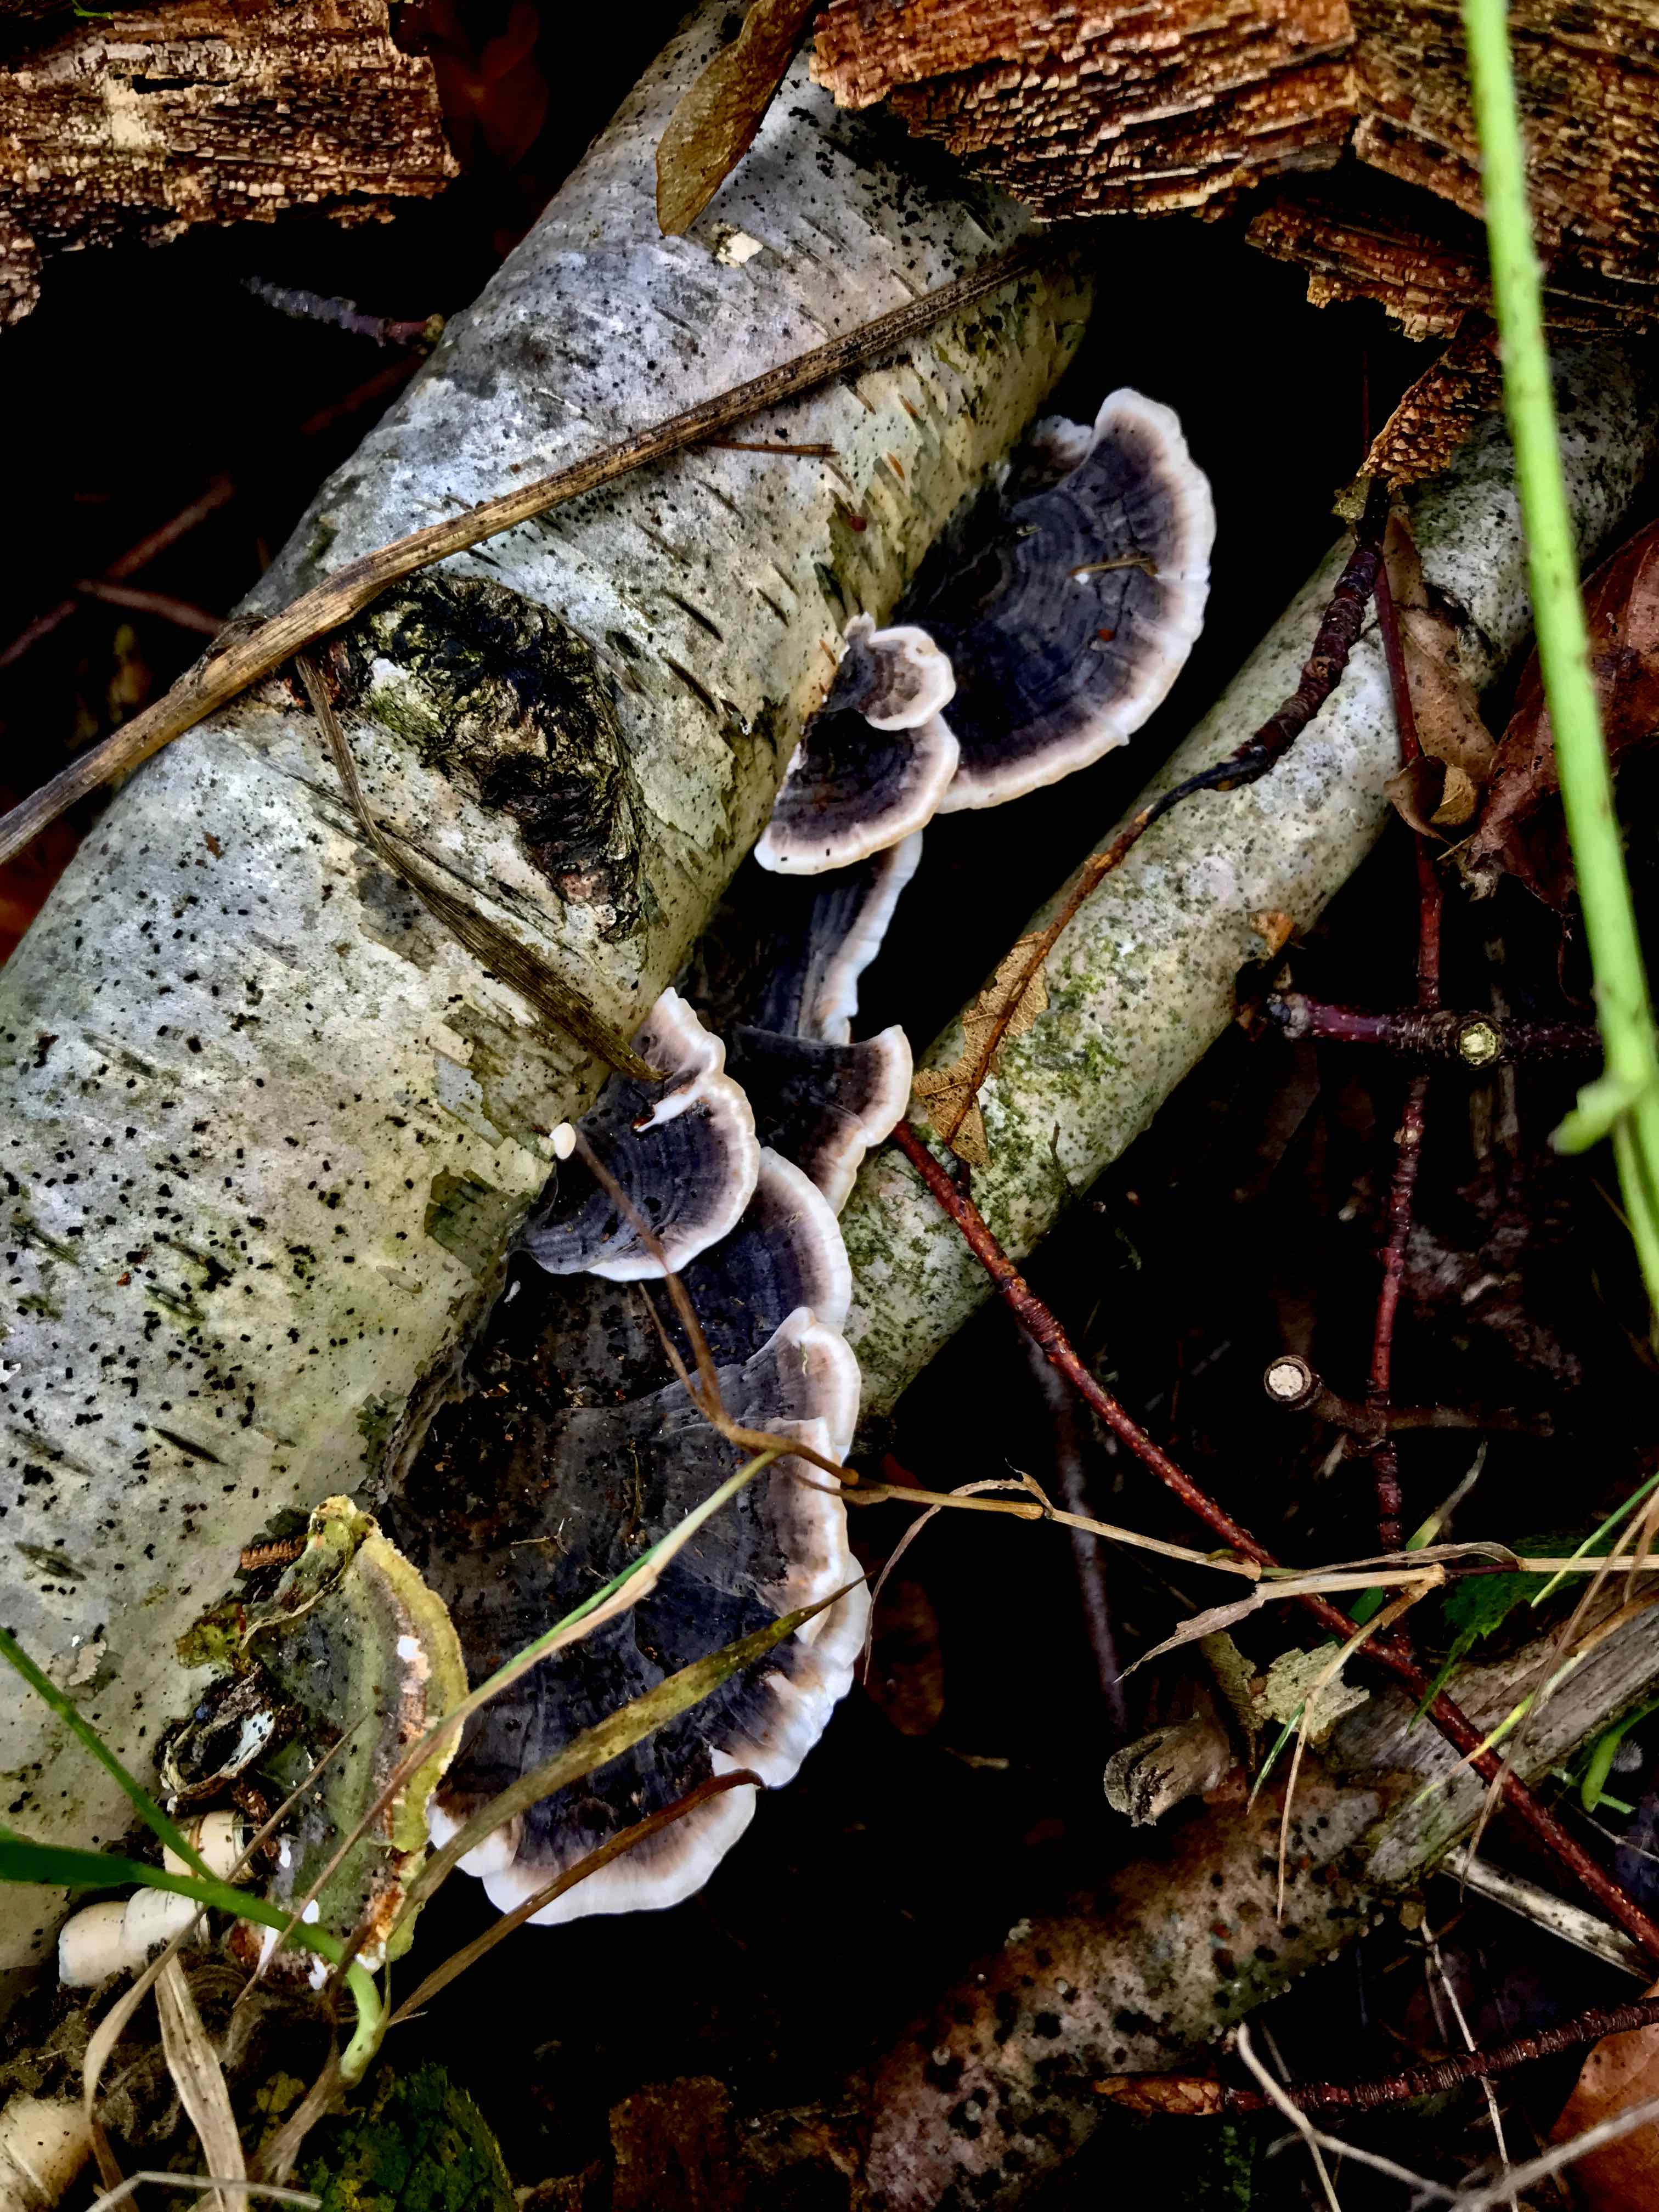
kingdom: Fungi
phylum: Basidiomycota
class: Agaricomycetes
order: Polyporales
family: Polyporaceae
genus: Trametes
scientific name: Trametes versicolor
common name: broget læderporesvamp
